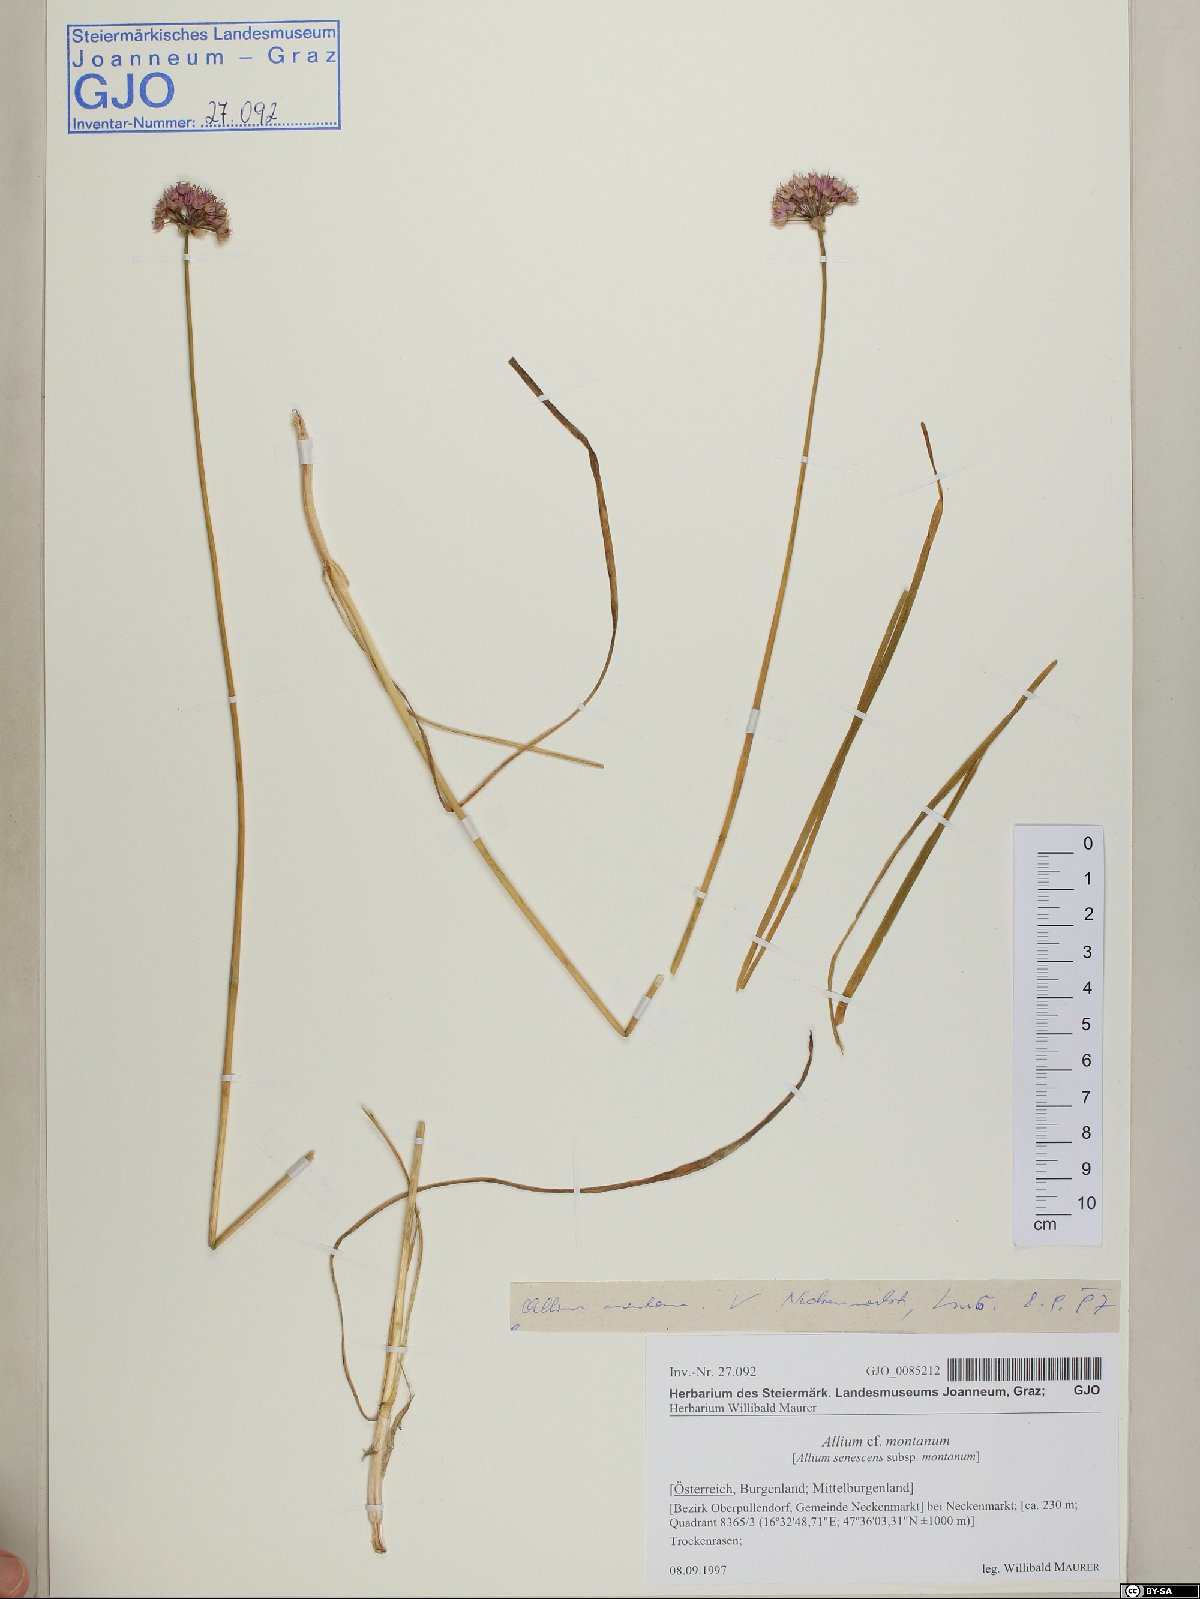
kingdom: Plantae
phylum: Tracheophyta
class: Liliopsida
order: Asparagales
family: Amaryllidaceae
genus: Allium
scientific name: Allium lusitanicum
